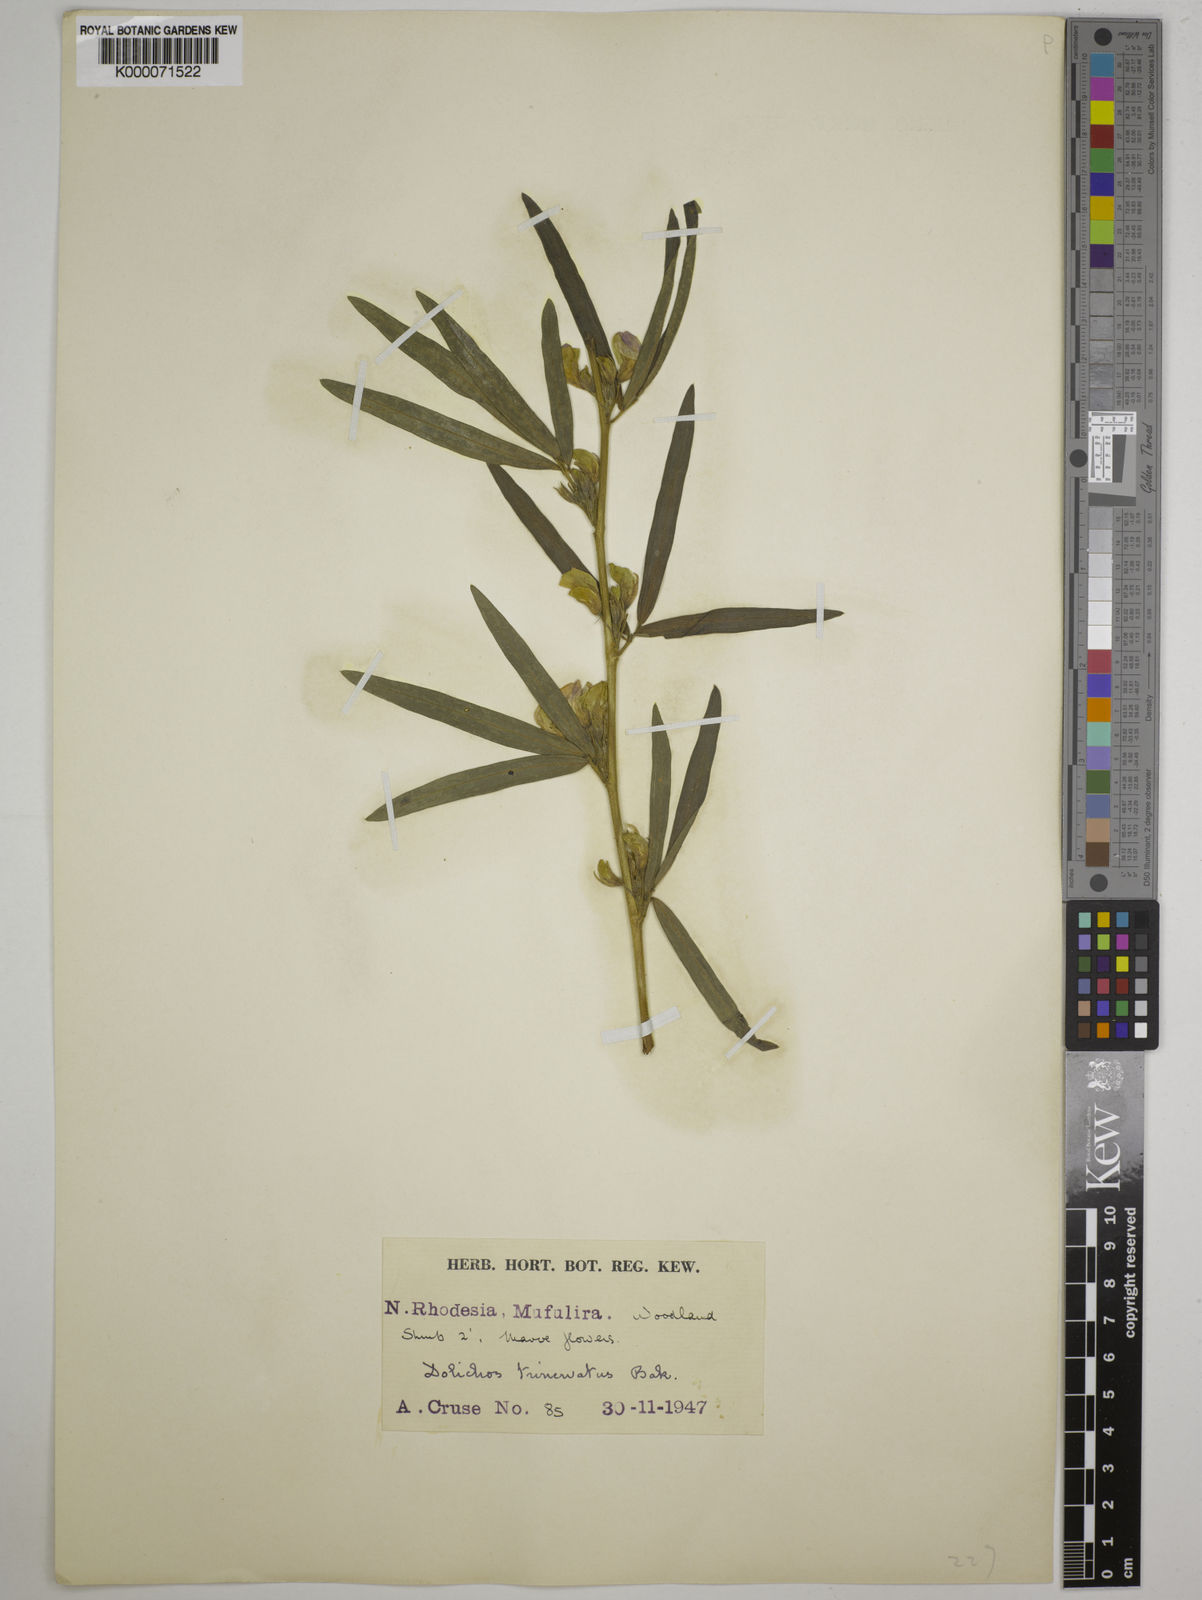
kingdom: Plantae
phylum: Tracheophyta
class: Magnoliopsida
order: Fabales
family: Fabaceae
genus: Dolichos
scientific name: Dolichos trinervatus
